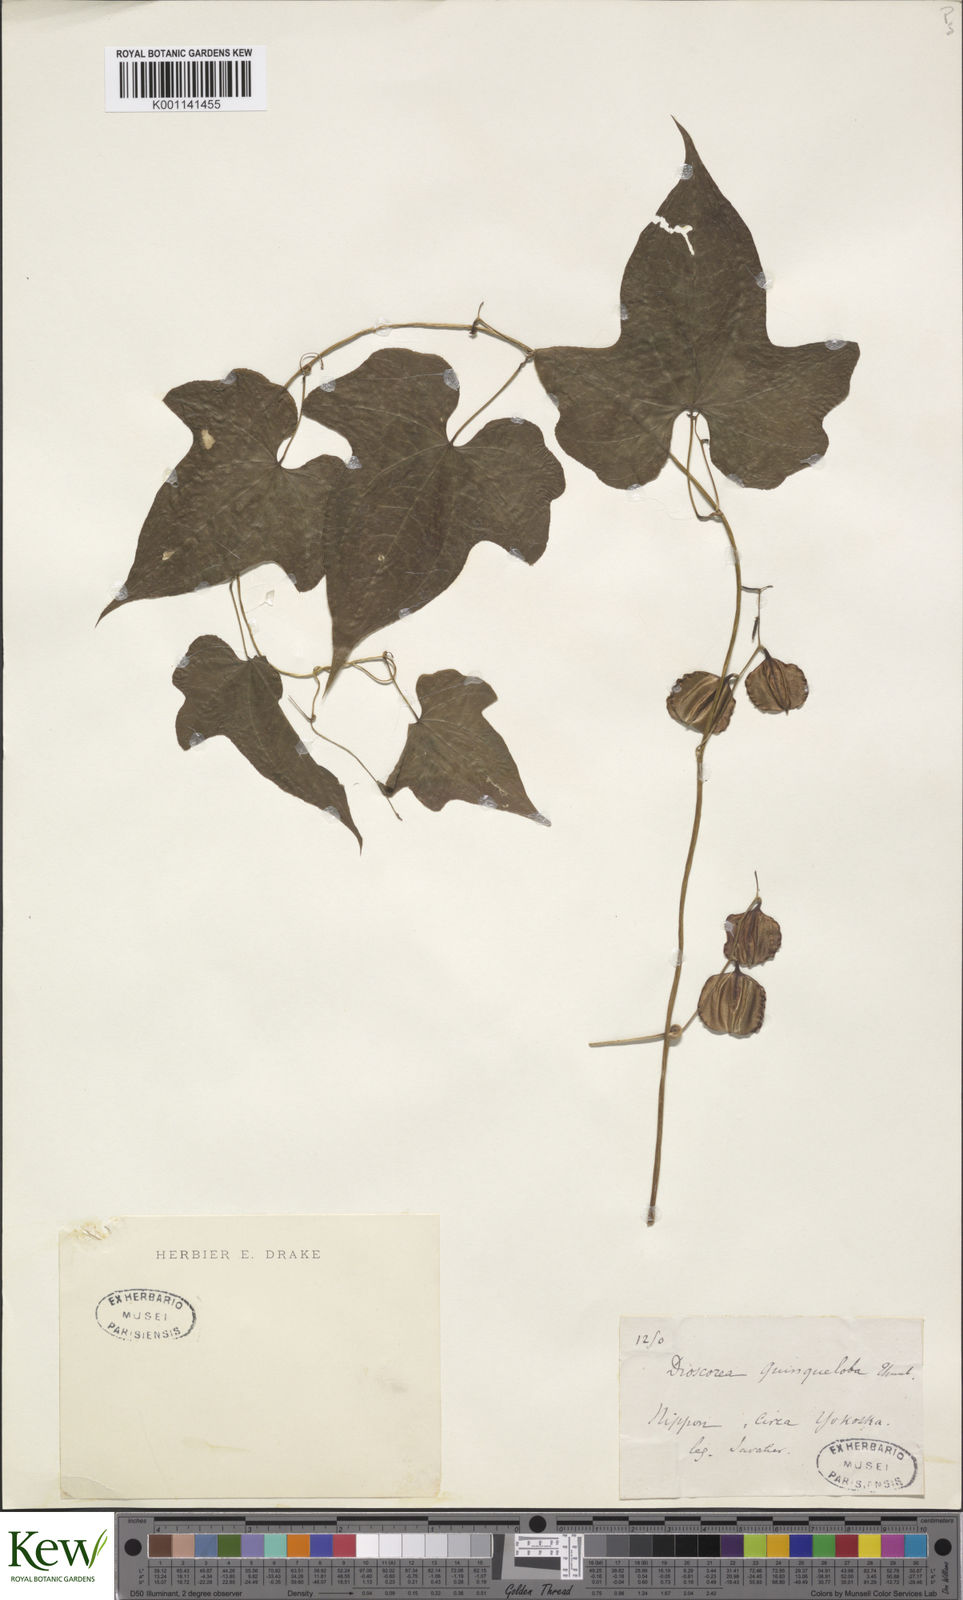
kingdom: Plantae
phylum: Tracheophyta
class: Liliopsida
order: Dioscoreales
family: Dioscoreaceae
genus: Dioscorea
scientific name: Dioscorea quinquelobata
